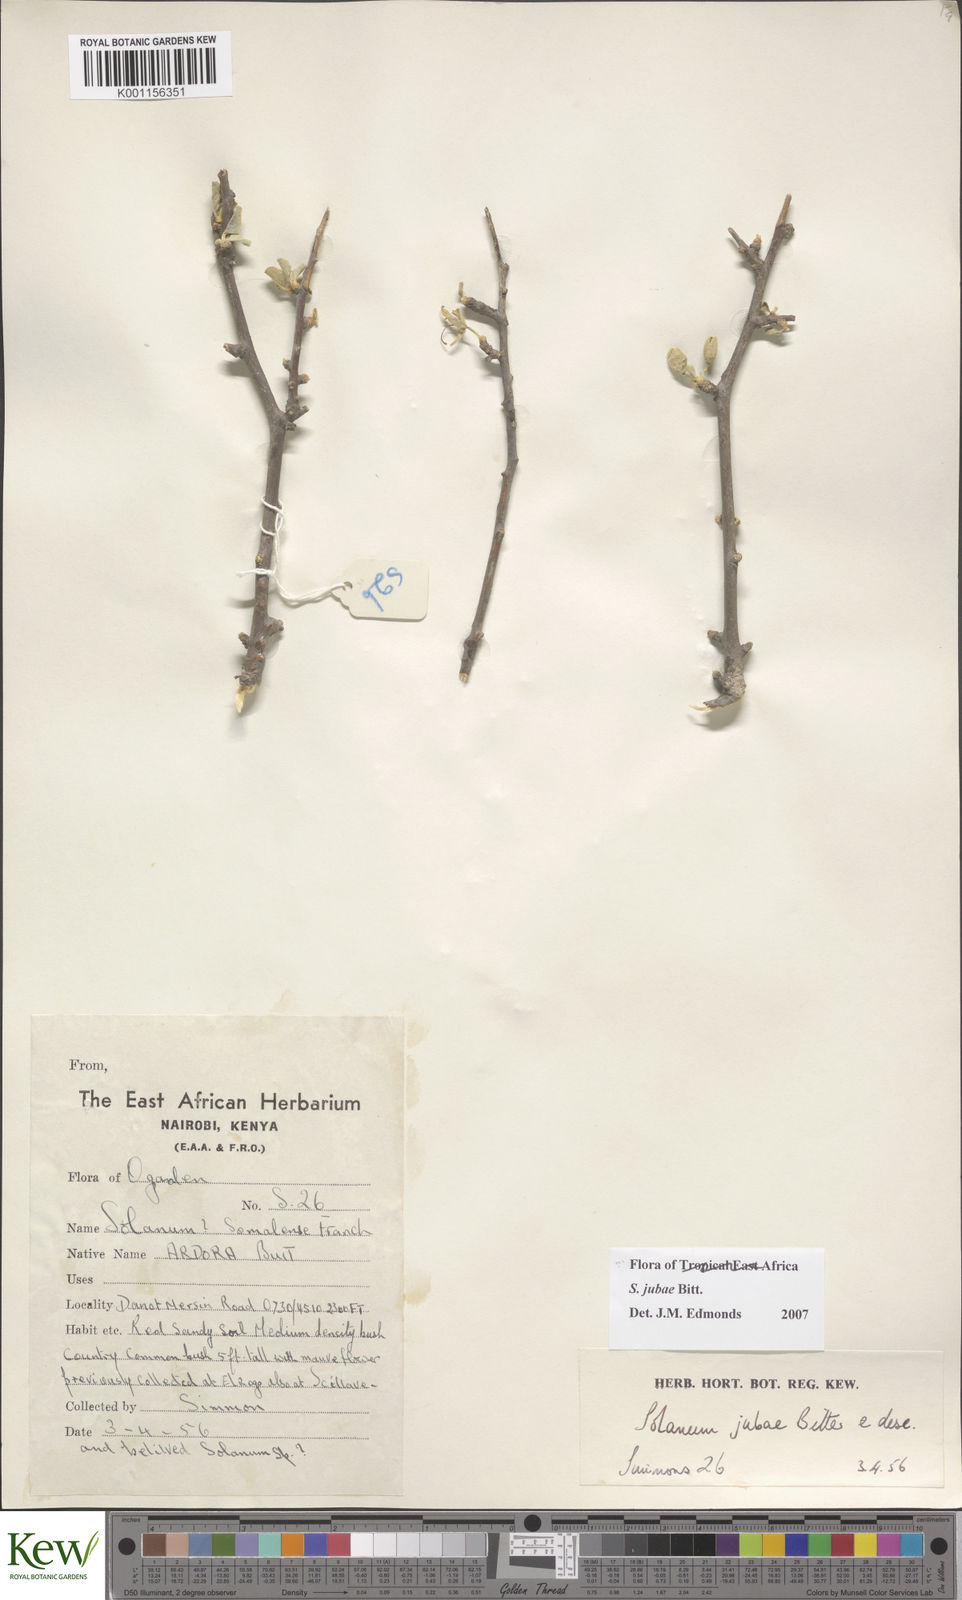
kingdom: Plantae
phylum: Tracheophyta
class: Magnoliopsida
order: Solanales
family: Solanaceae
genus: Solanum
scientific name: Solanum jubae
